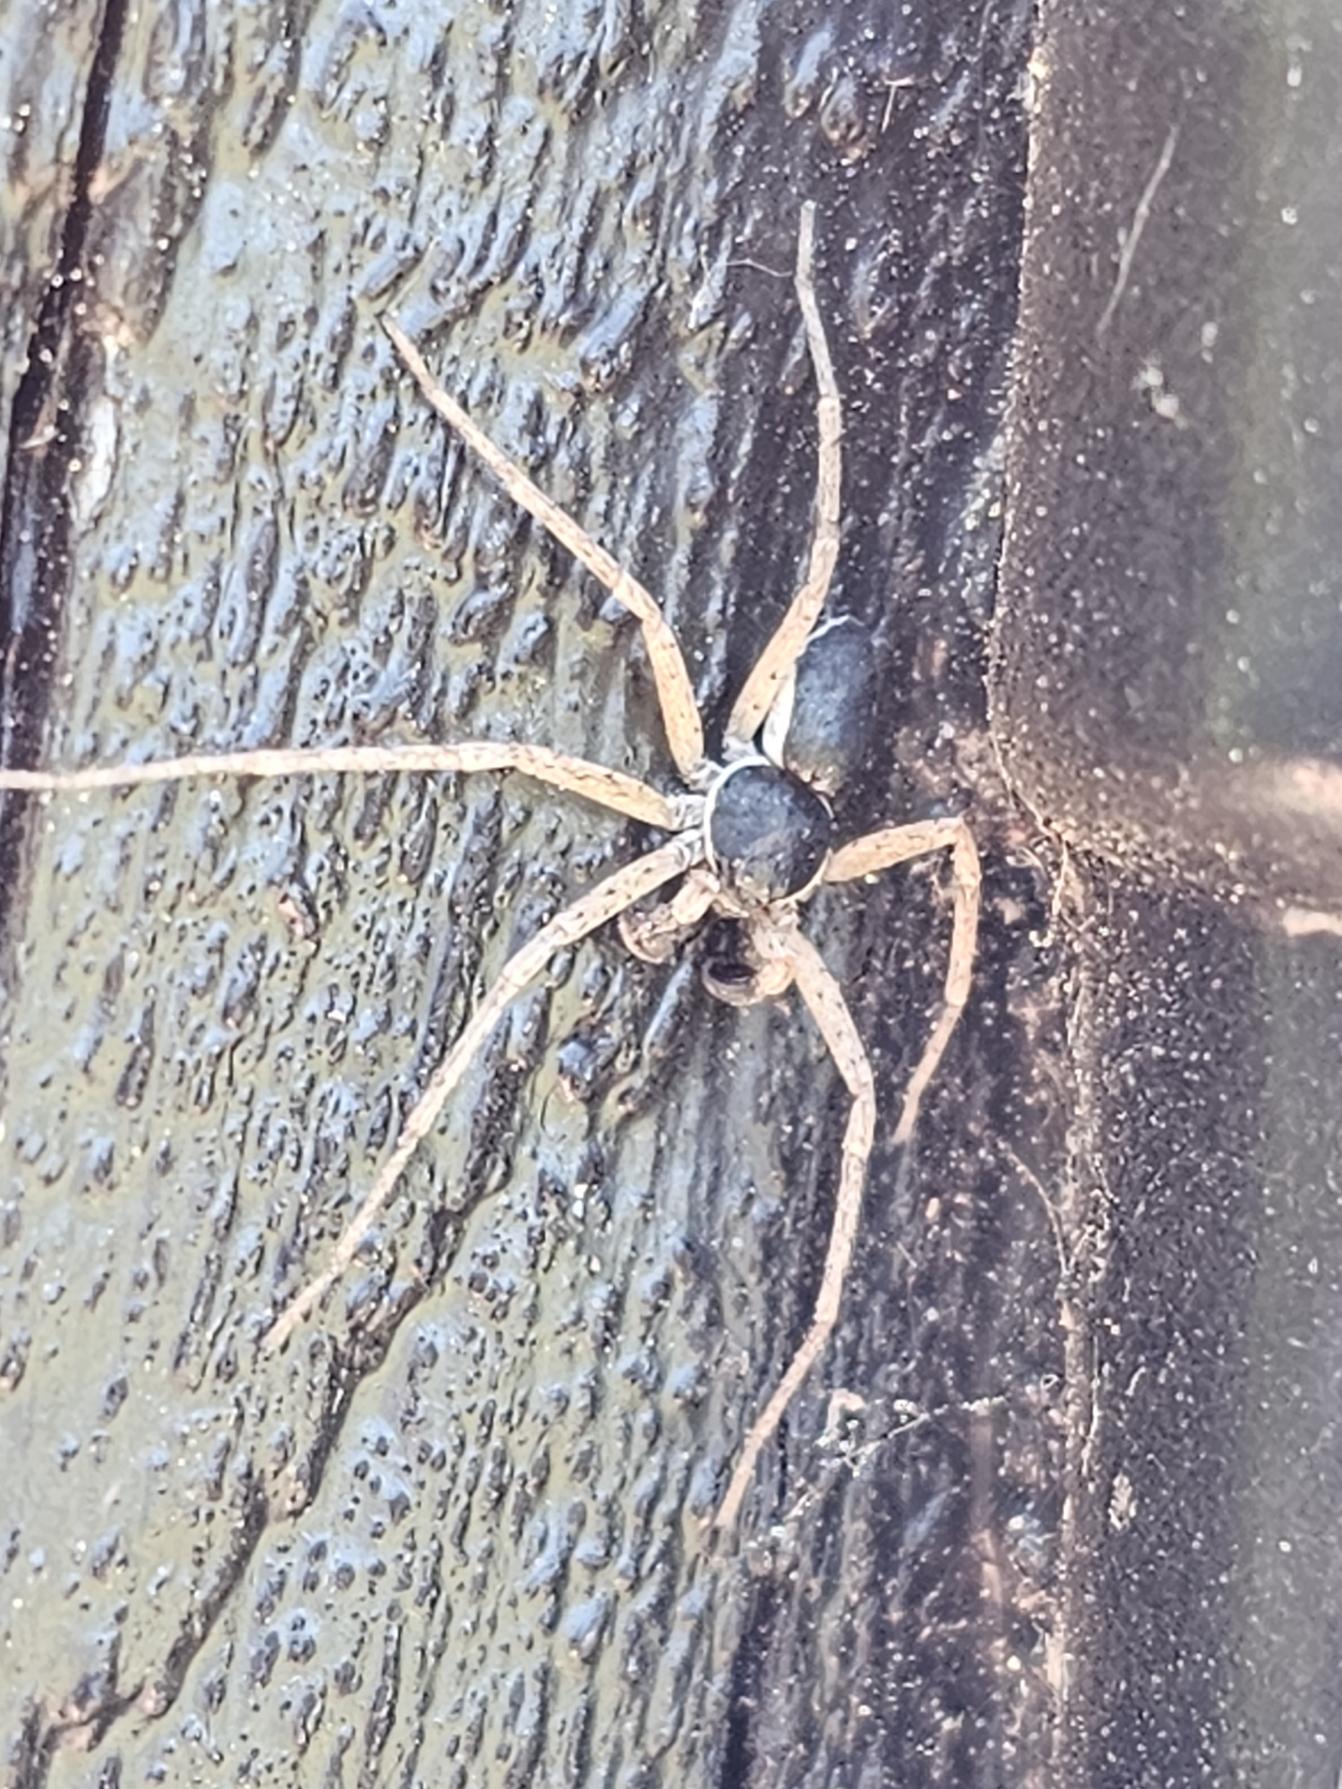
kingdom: Animalia
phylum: Arthropoda
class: Arachnida
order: Araneae
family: Philodromidae
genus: Philodromus
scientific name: Philodromus dispar
